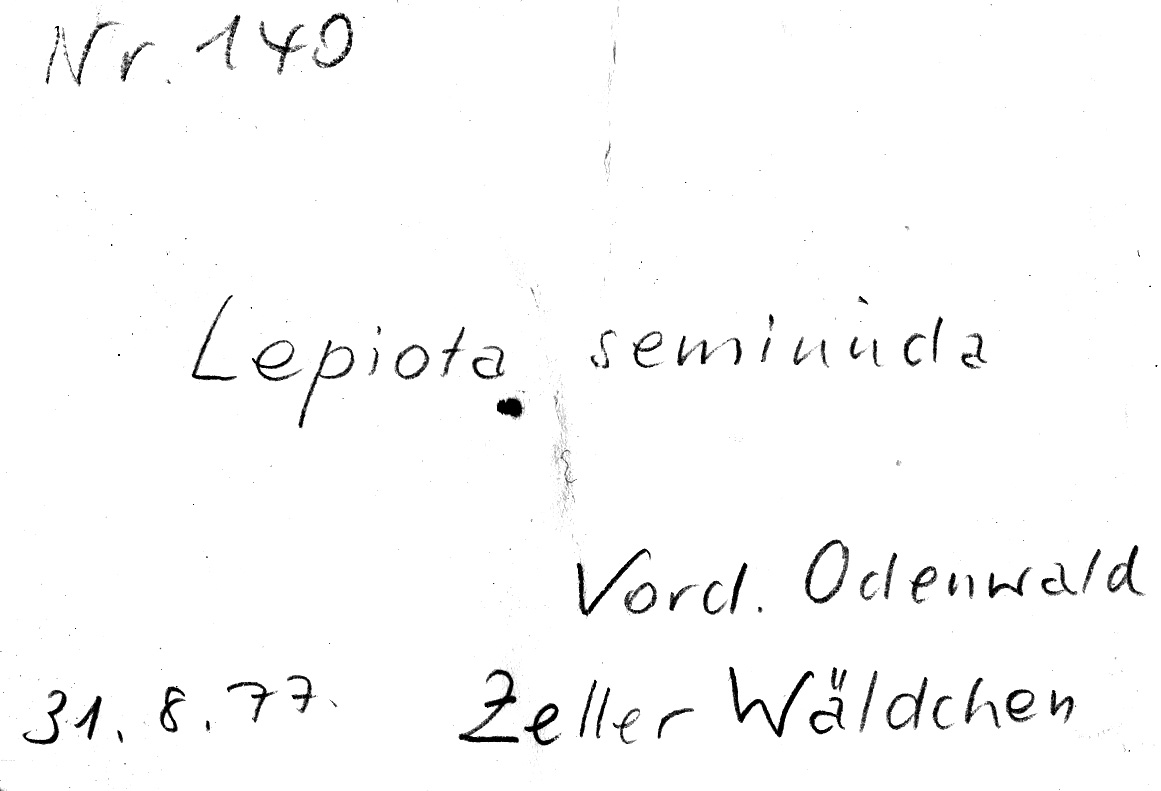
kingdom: Fungi
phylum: Basidiomycota
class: Agaricomycetes
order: Agaricales
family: Agaricaceae
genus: Cystolepiota
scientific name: Cystolepiota seminuda
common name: Bearded dapperling
